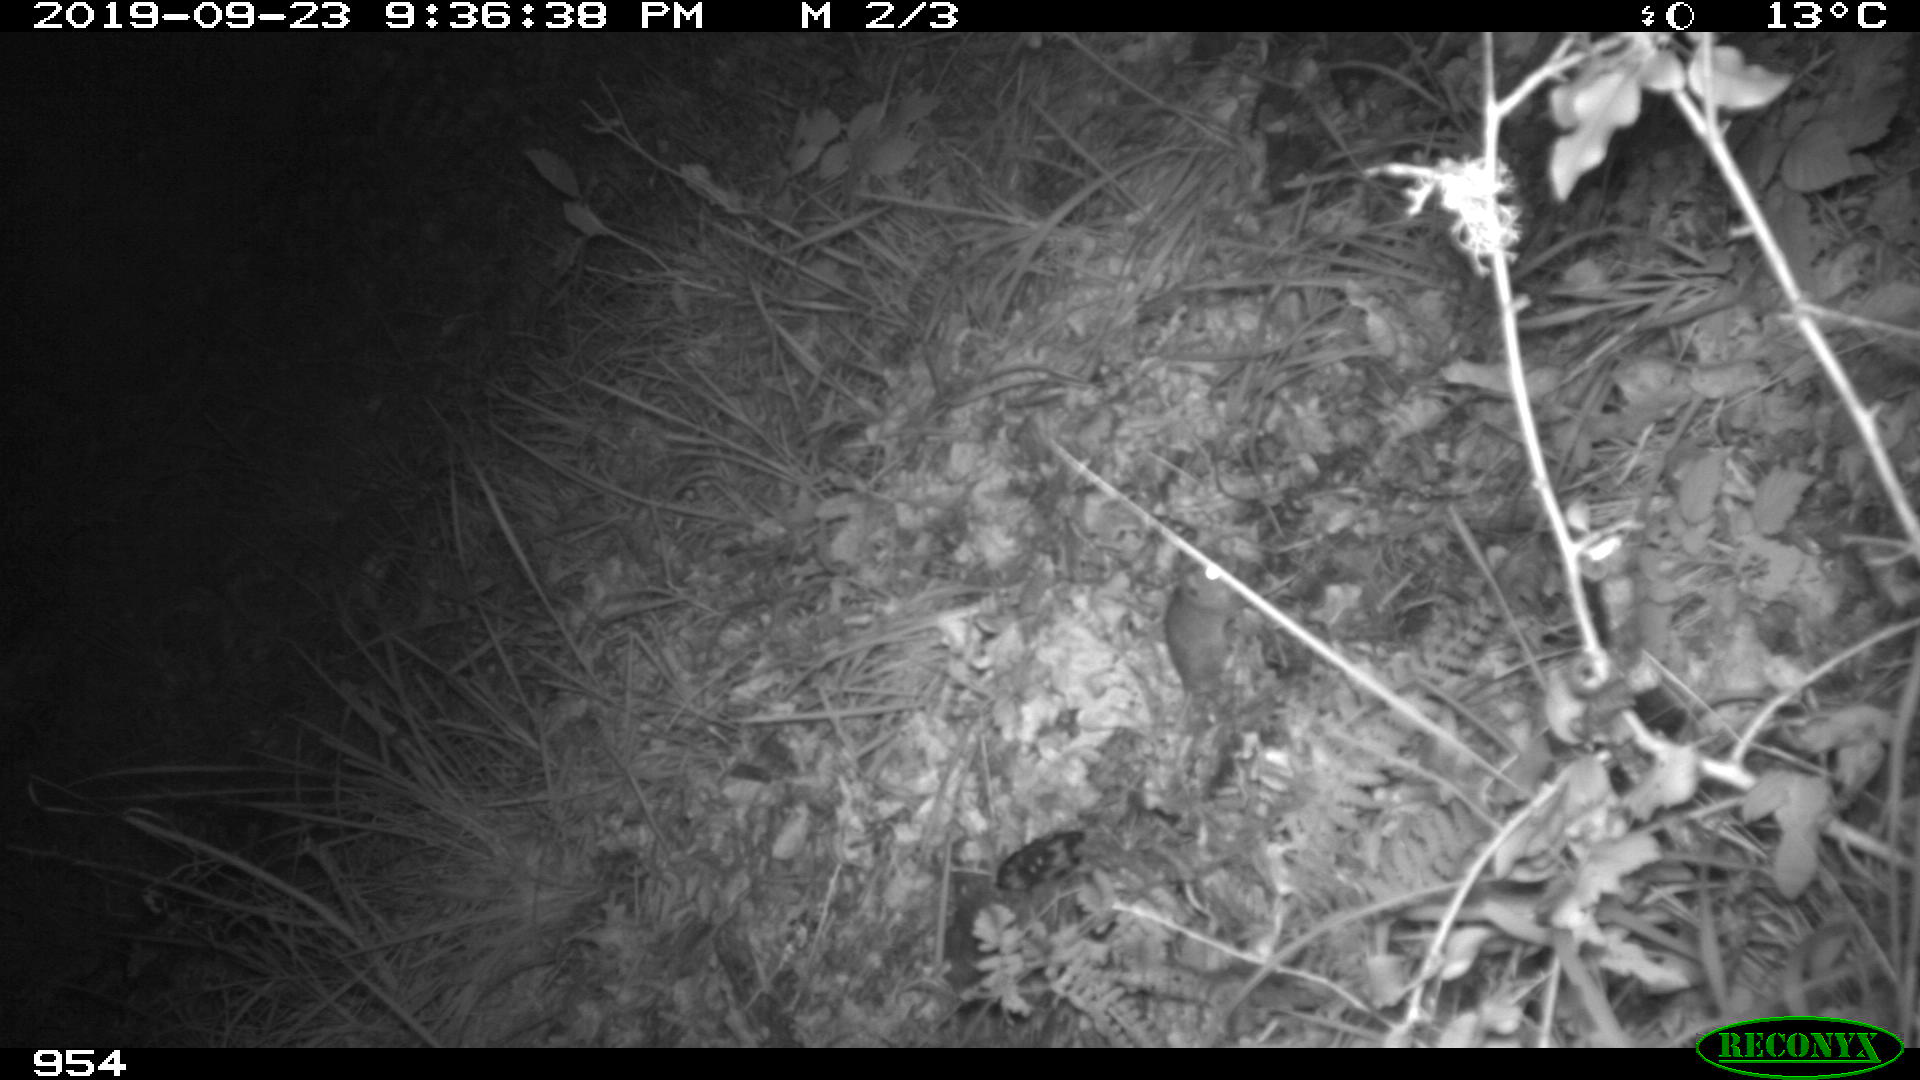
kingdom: Animalia
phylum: Chordata
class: Mammalia
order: Rodentia
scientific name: Rodentia
